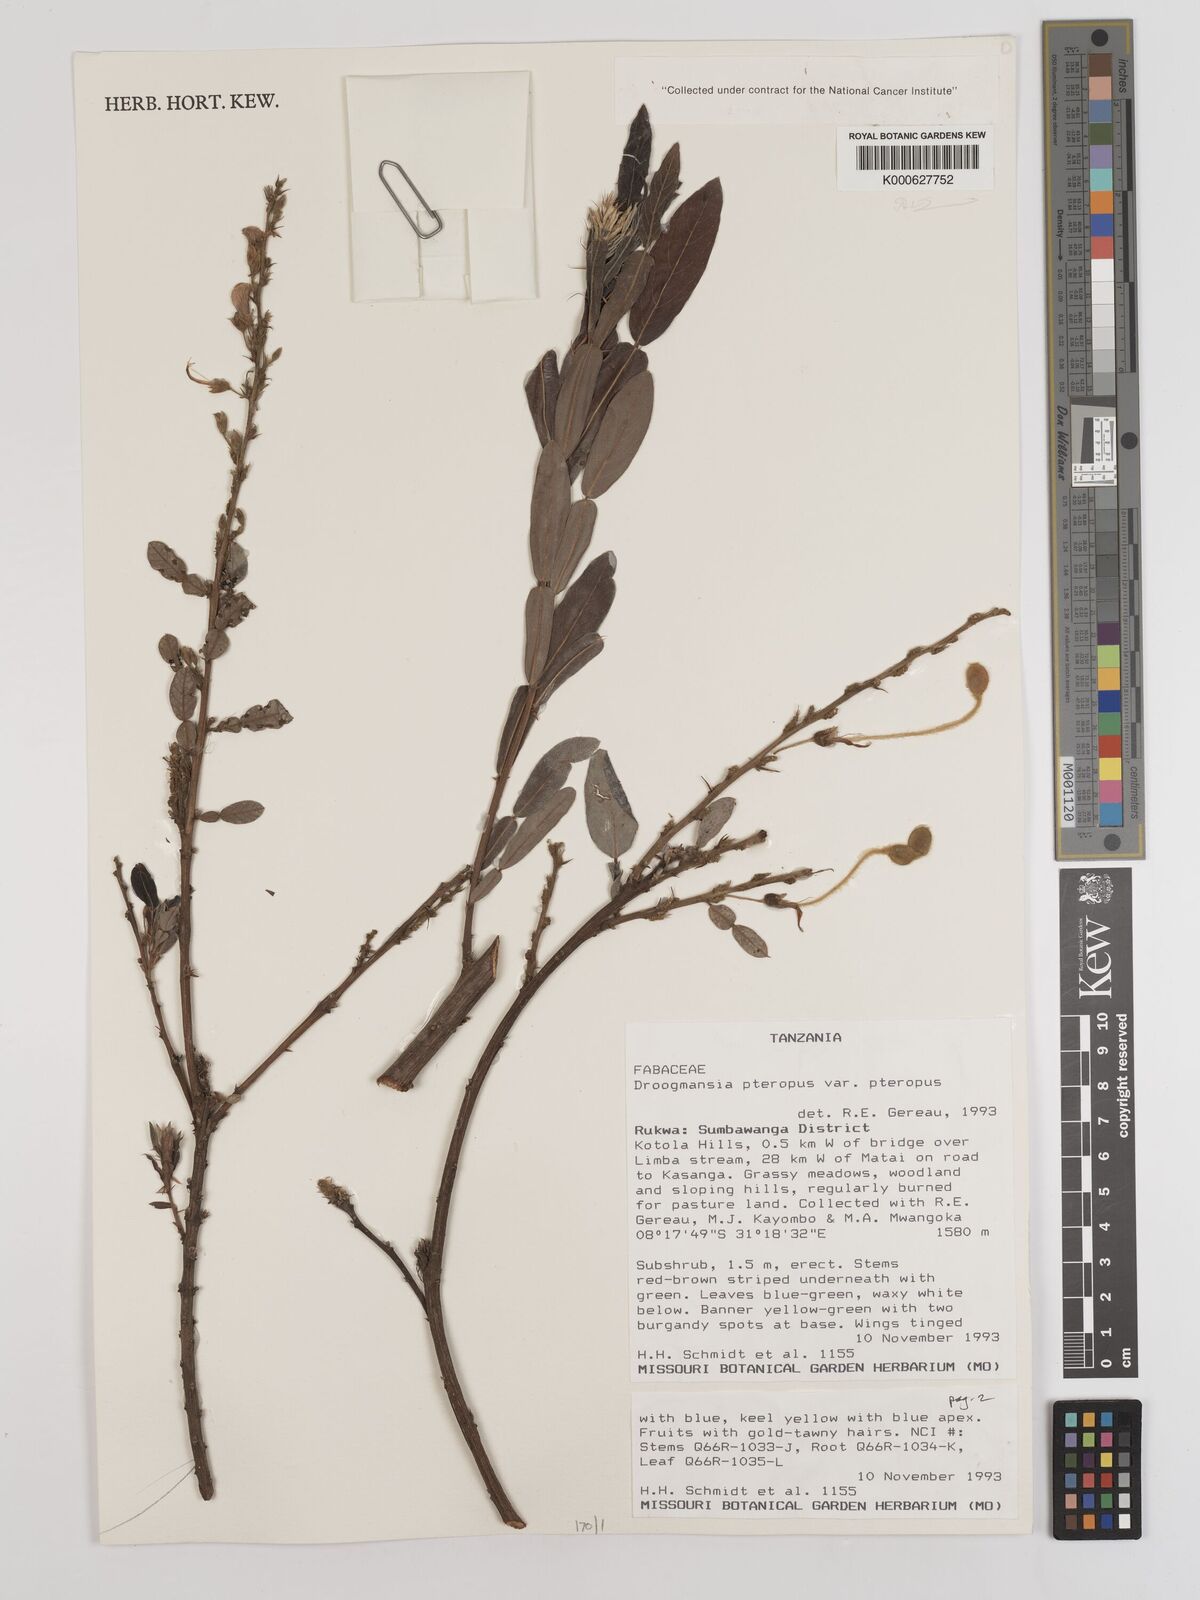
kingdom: Plantae
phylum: Tracheophyta
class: Magnoliopsida
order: Fabales
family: Fabaceae
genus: Droogmansia
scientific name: Droogmansia
